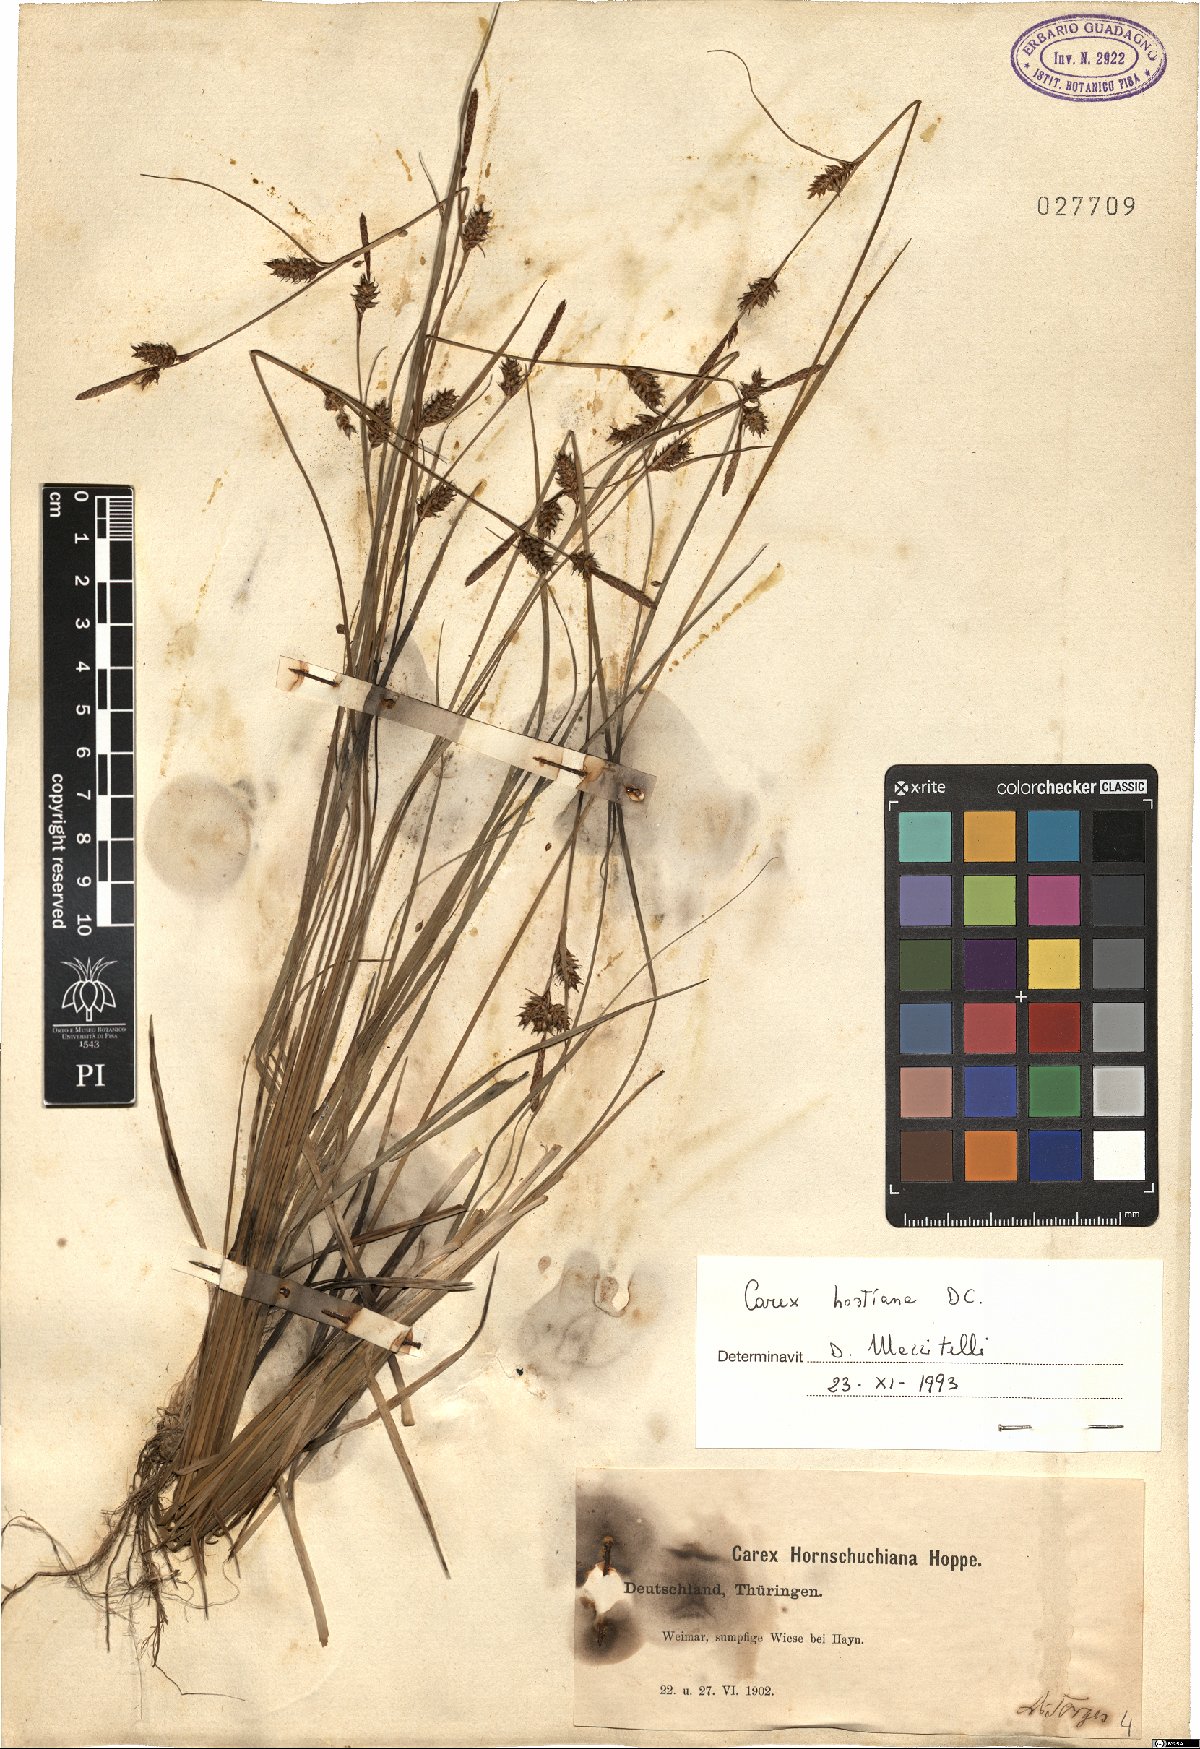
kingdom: Plantae
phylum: Tracheophyta
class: Liliopsida
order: Poales
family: Cyperaceae
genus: Carex
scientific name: Carex hostiana
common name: Tawny sedge
